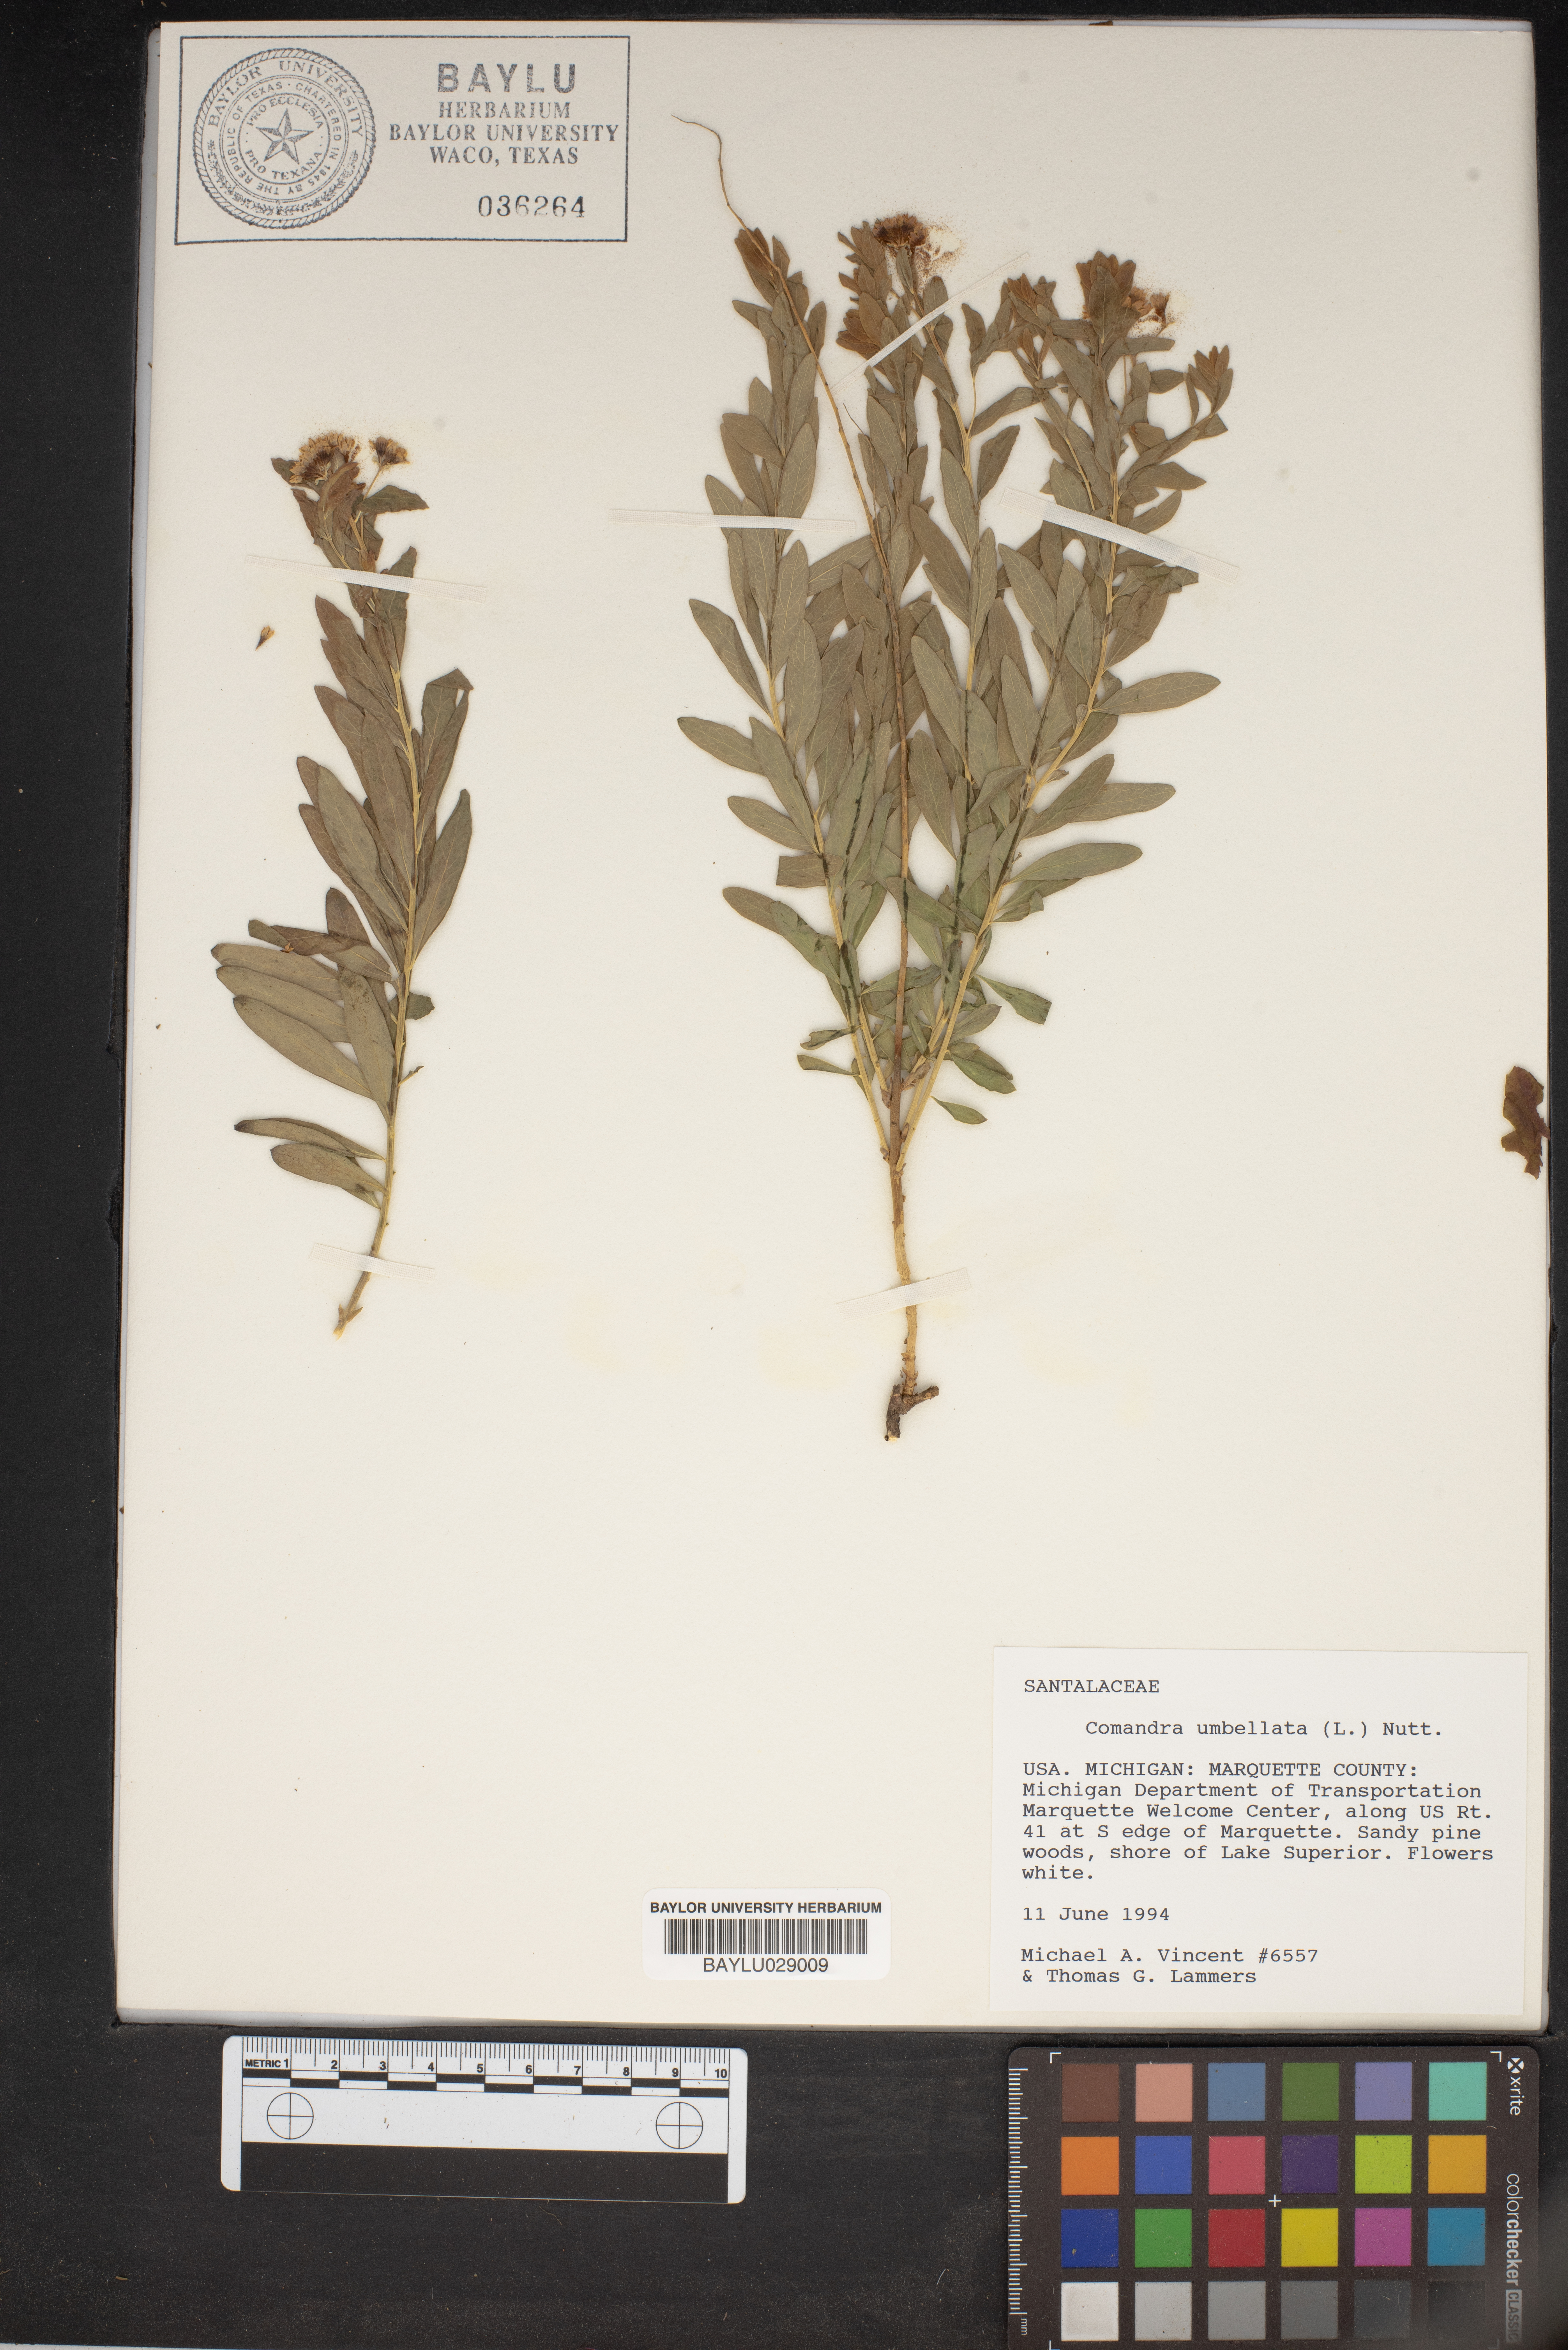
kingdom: Plantae
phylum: Tracheophyta
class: Magnoliopsida
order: Santalales
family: Comandraceae
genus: Comandra
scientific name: Comandra umbellata
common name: Bastard toadflax
